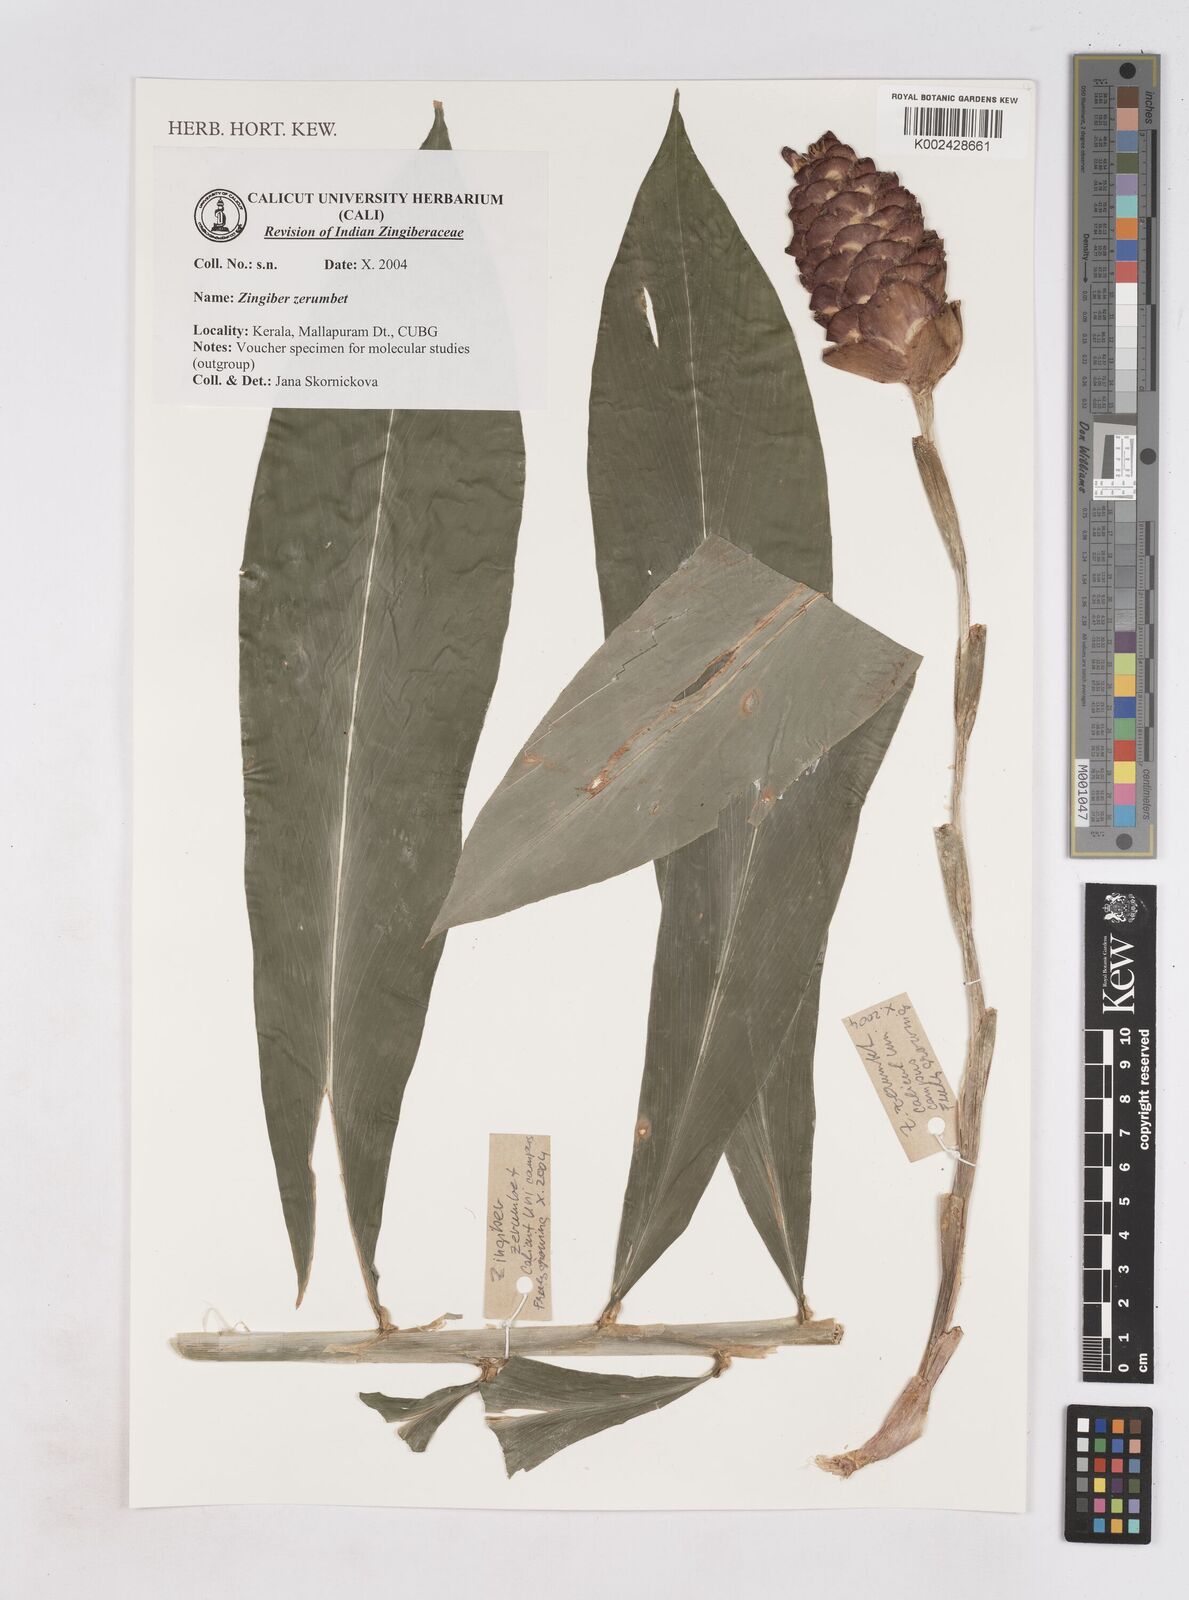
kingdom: Plantae
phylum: Tracheophyta
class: Liliopsida
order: Zingiberales
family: Zingiberaceae
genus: Zingiber
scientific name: Zingiber zerumbet
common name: Bitter ginger
